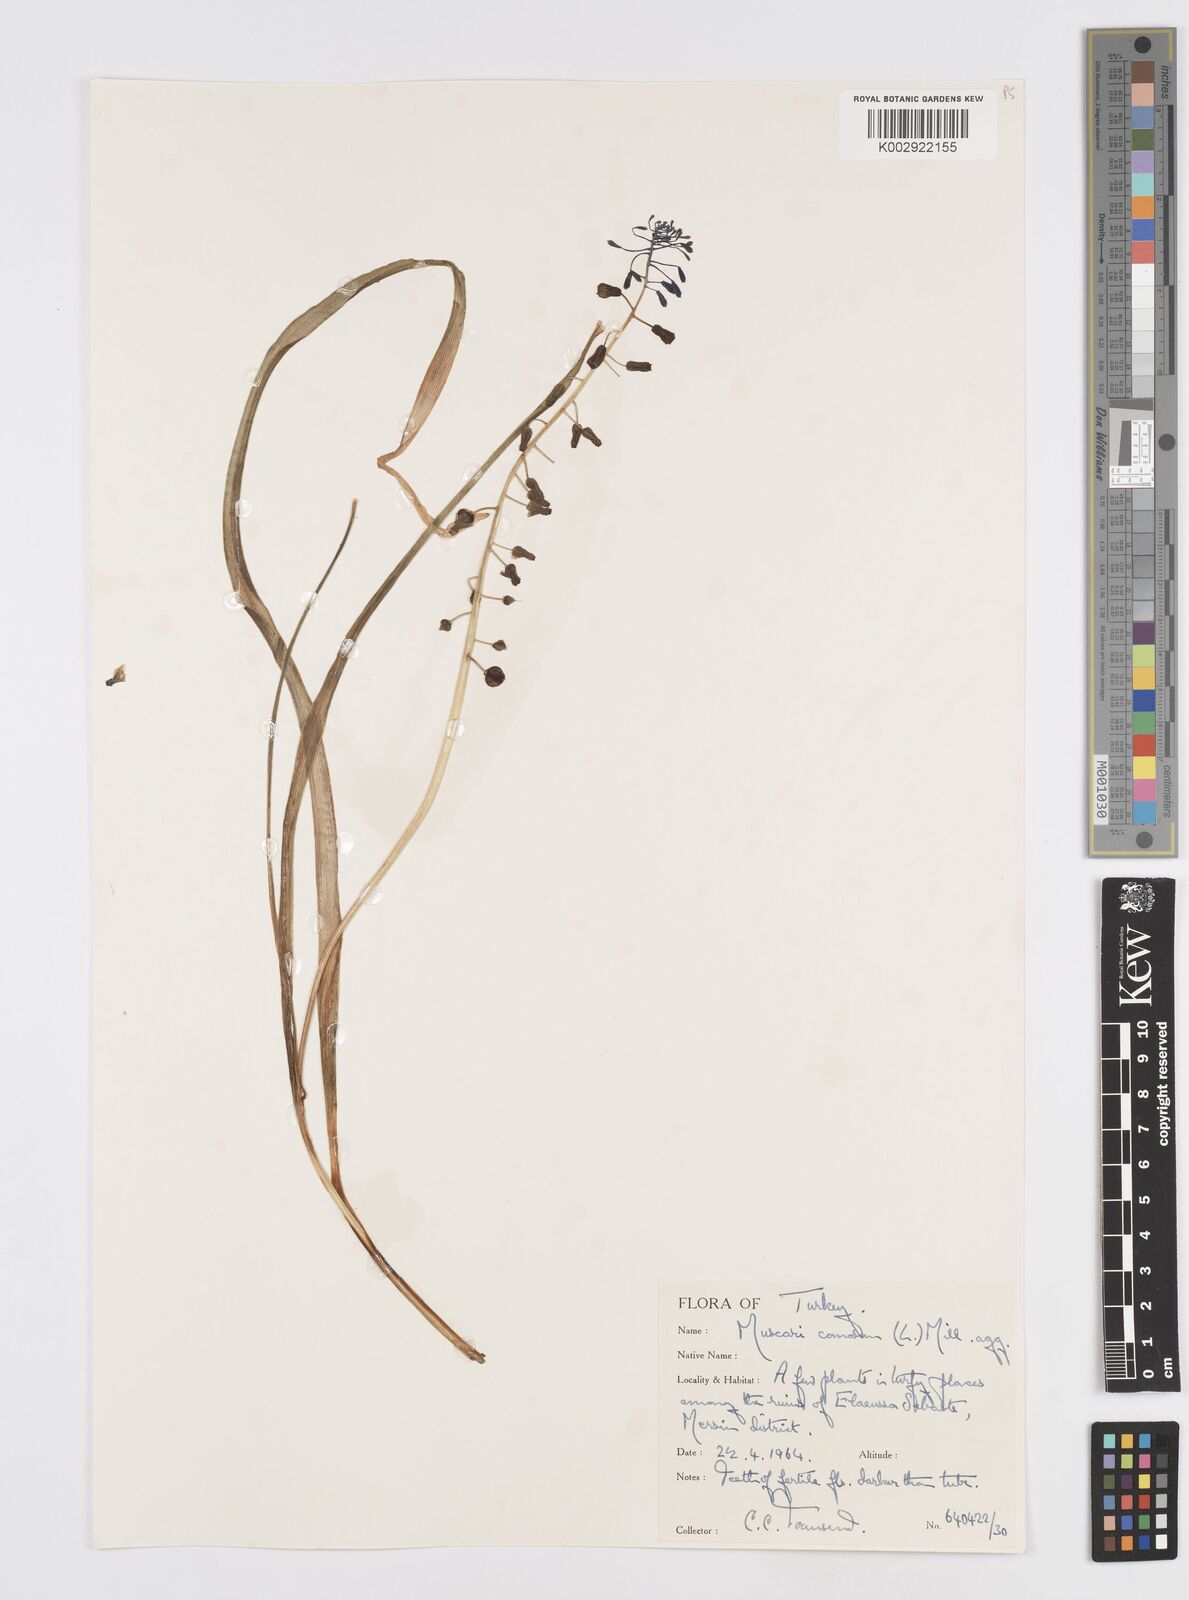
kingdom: Plantae
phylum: Tracheophyta
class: Liliopsida
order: Asparagales
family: Asparagaceae
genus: Muscari
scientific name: Muscari comosum
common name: Tassel hyacinth
